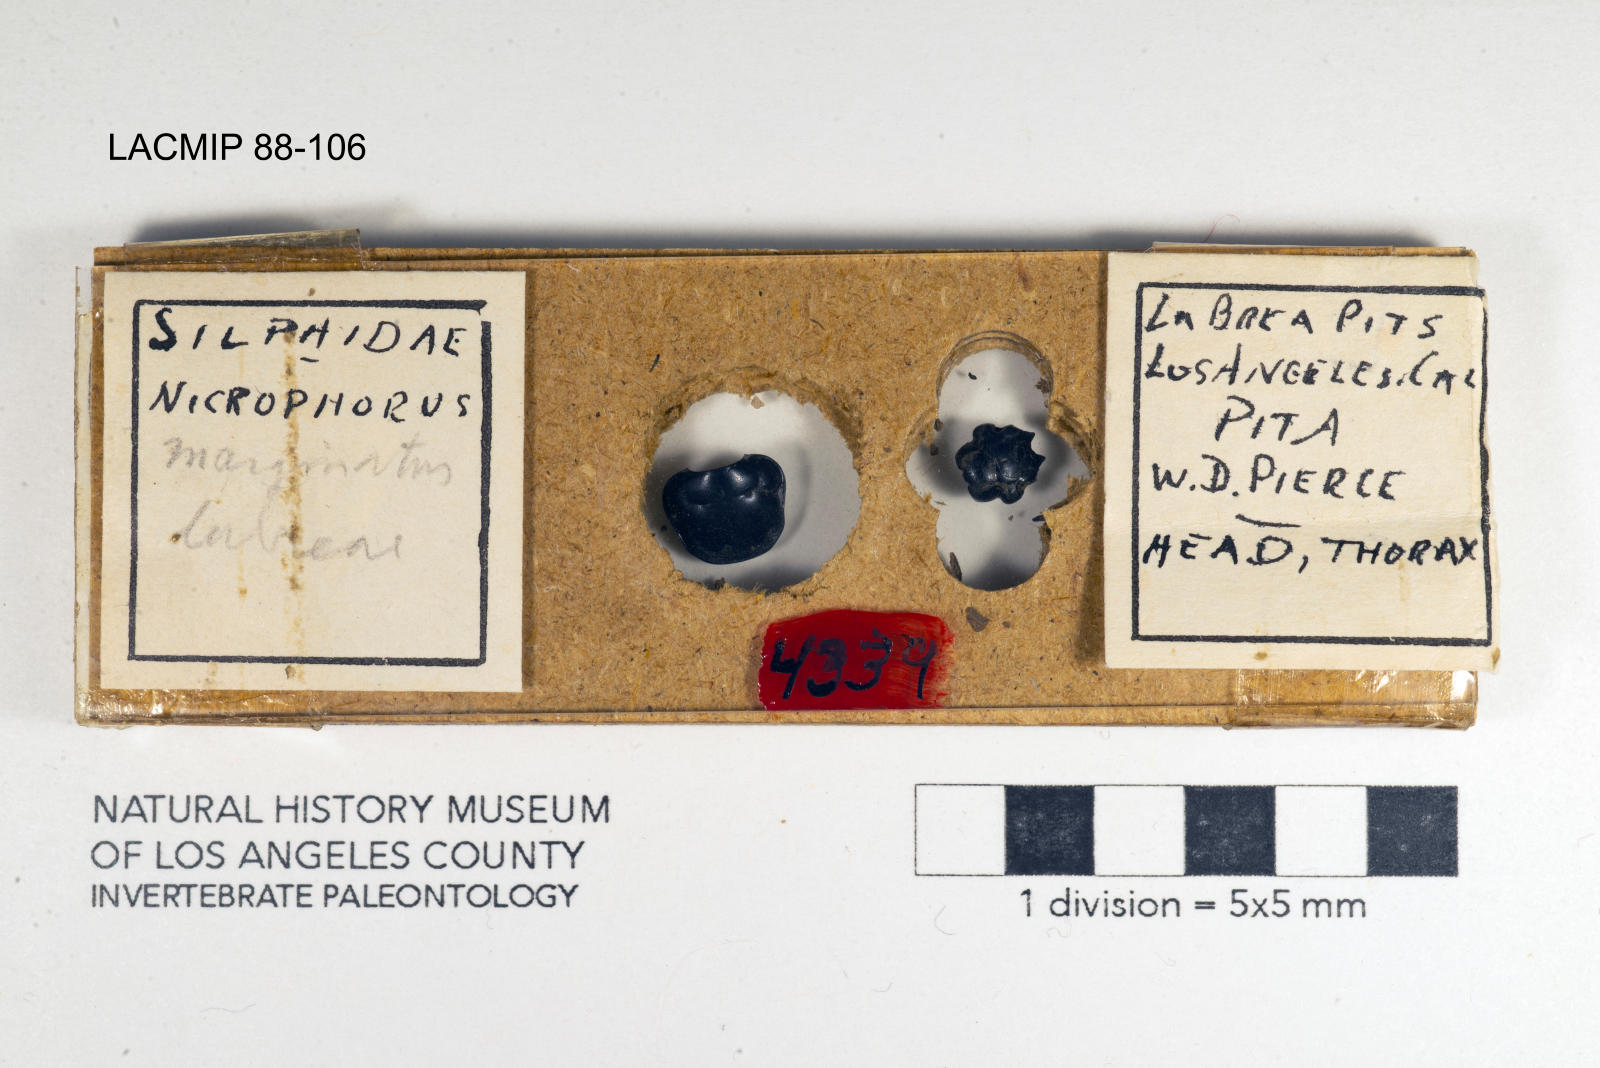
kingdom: Animalia
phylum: Arthropoda
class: Insecta
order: Coleoptera
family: Staphylinidae
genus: Nicrophorus
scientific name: Nicrophorus marginatus
